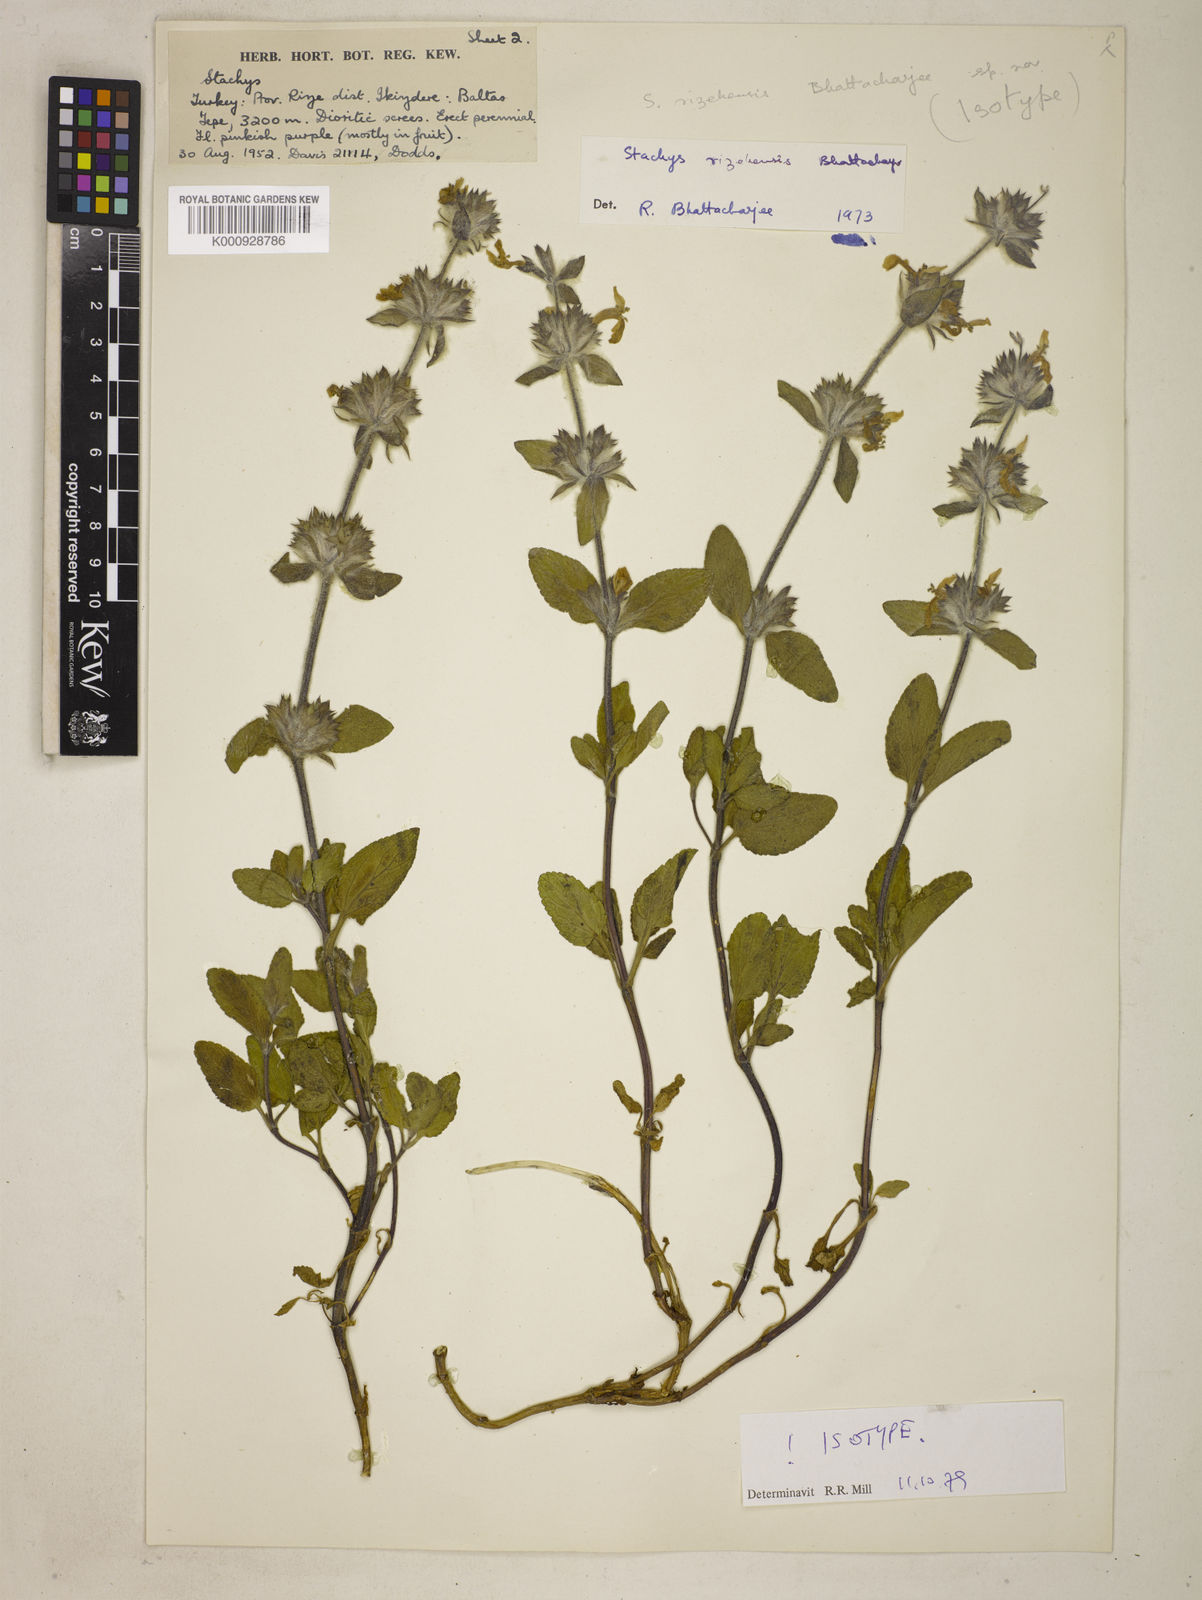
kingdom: Plantae
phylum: Tracheophyta
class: Magnoliopsida
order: Lamiales
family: Lamiaceae
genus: Stachys
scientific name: Stachys
